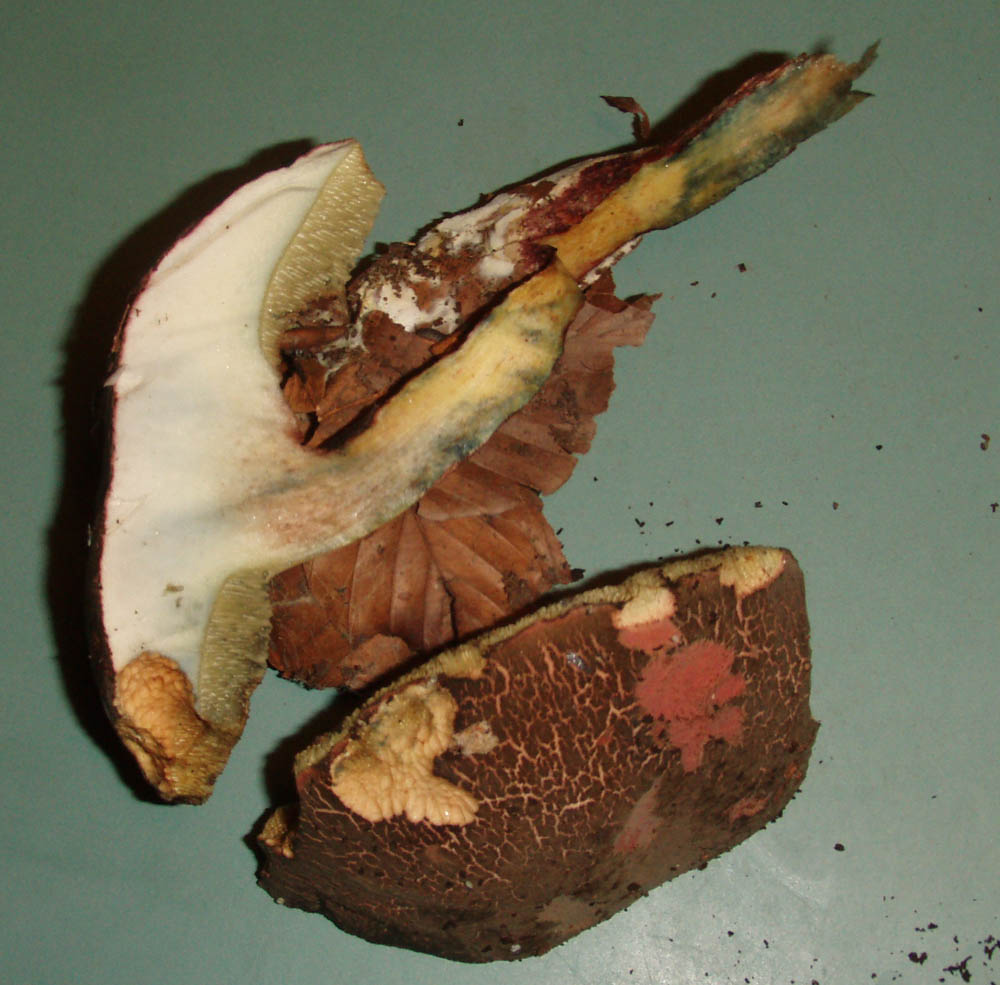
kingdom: Fungi
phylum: Basidiomycota
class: Agaricomycetes
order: Boletales
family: Boletaceae
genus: Xerocomellus
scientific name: Xerocomellus cisalpinus
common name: finsprukken rørhat
